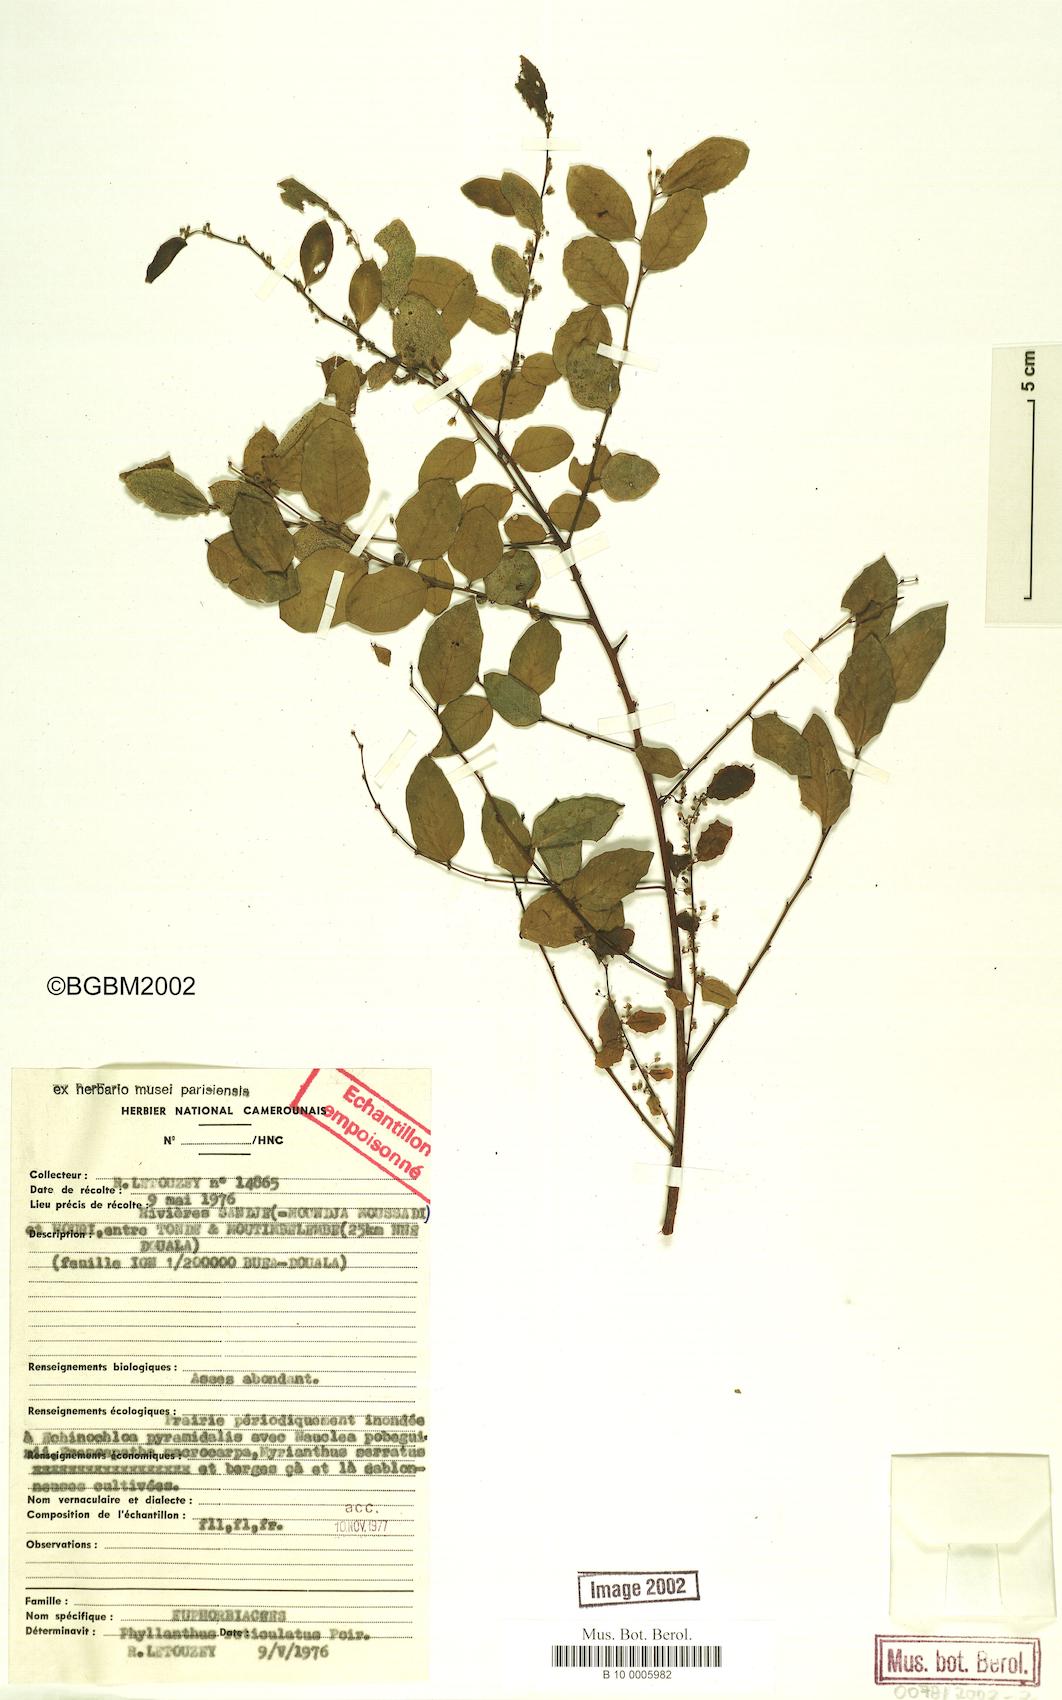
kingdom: Plantae
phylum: Tracheophyta
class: Magnoliopsida
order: Malpighiales
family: Phyllanthaceae
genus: Phyllanthus
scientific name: Phyllanthus reticulatus
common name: Potato bush
